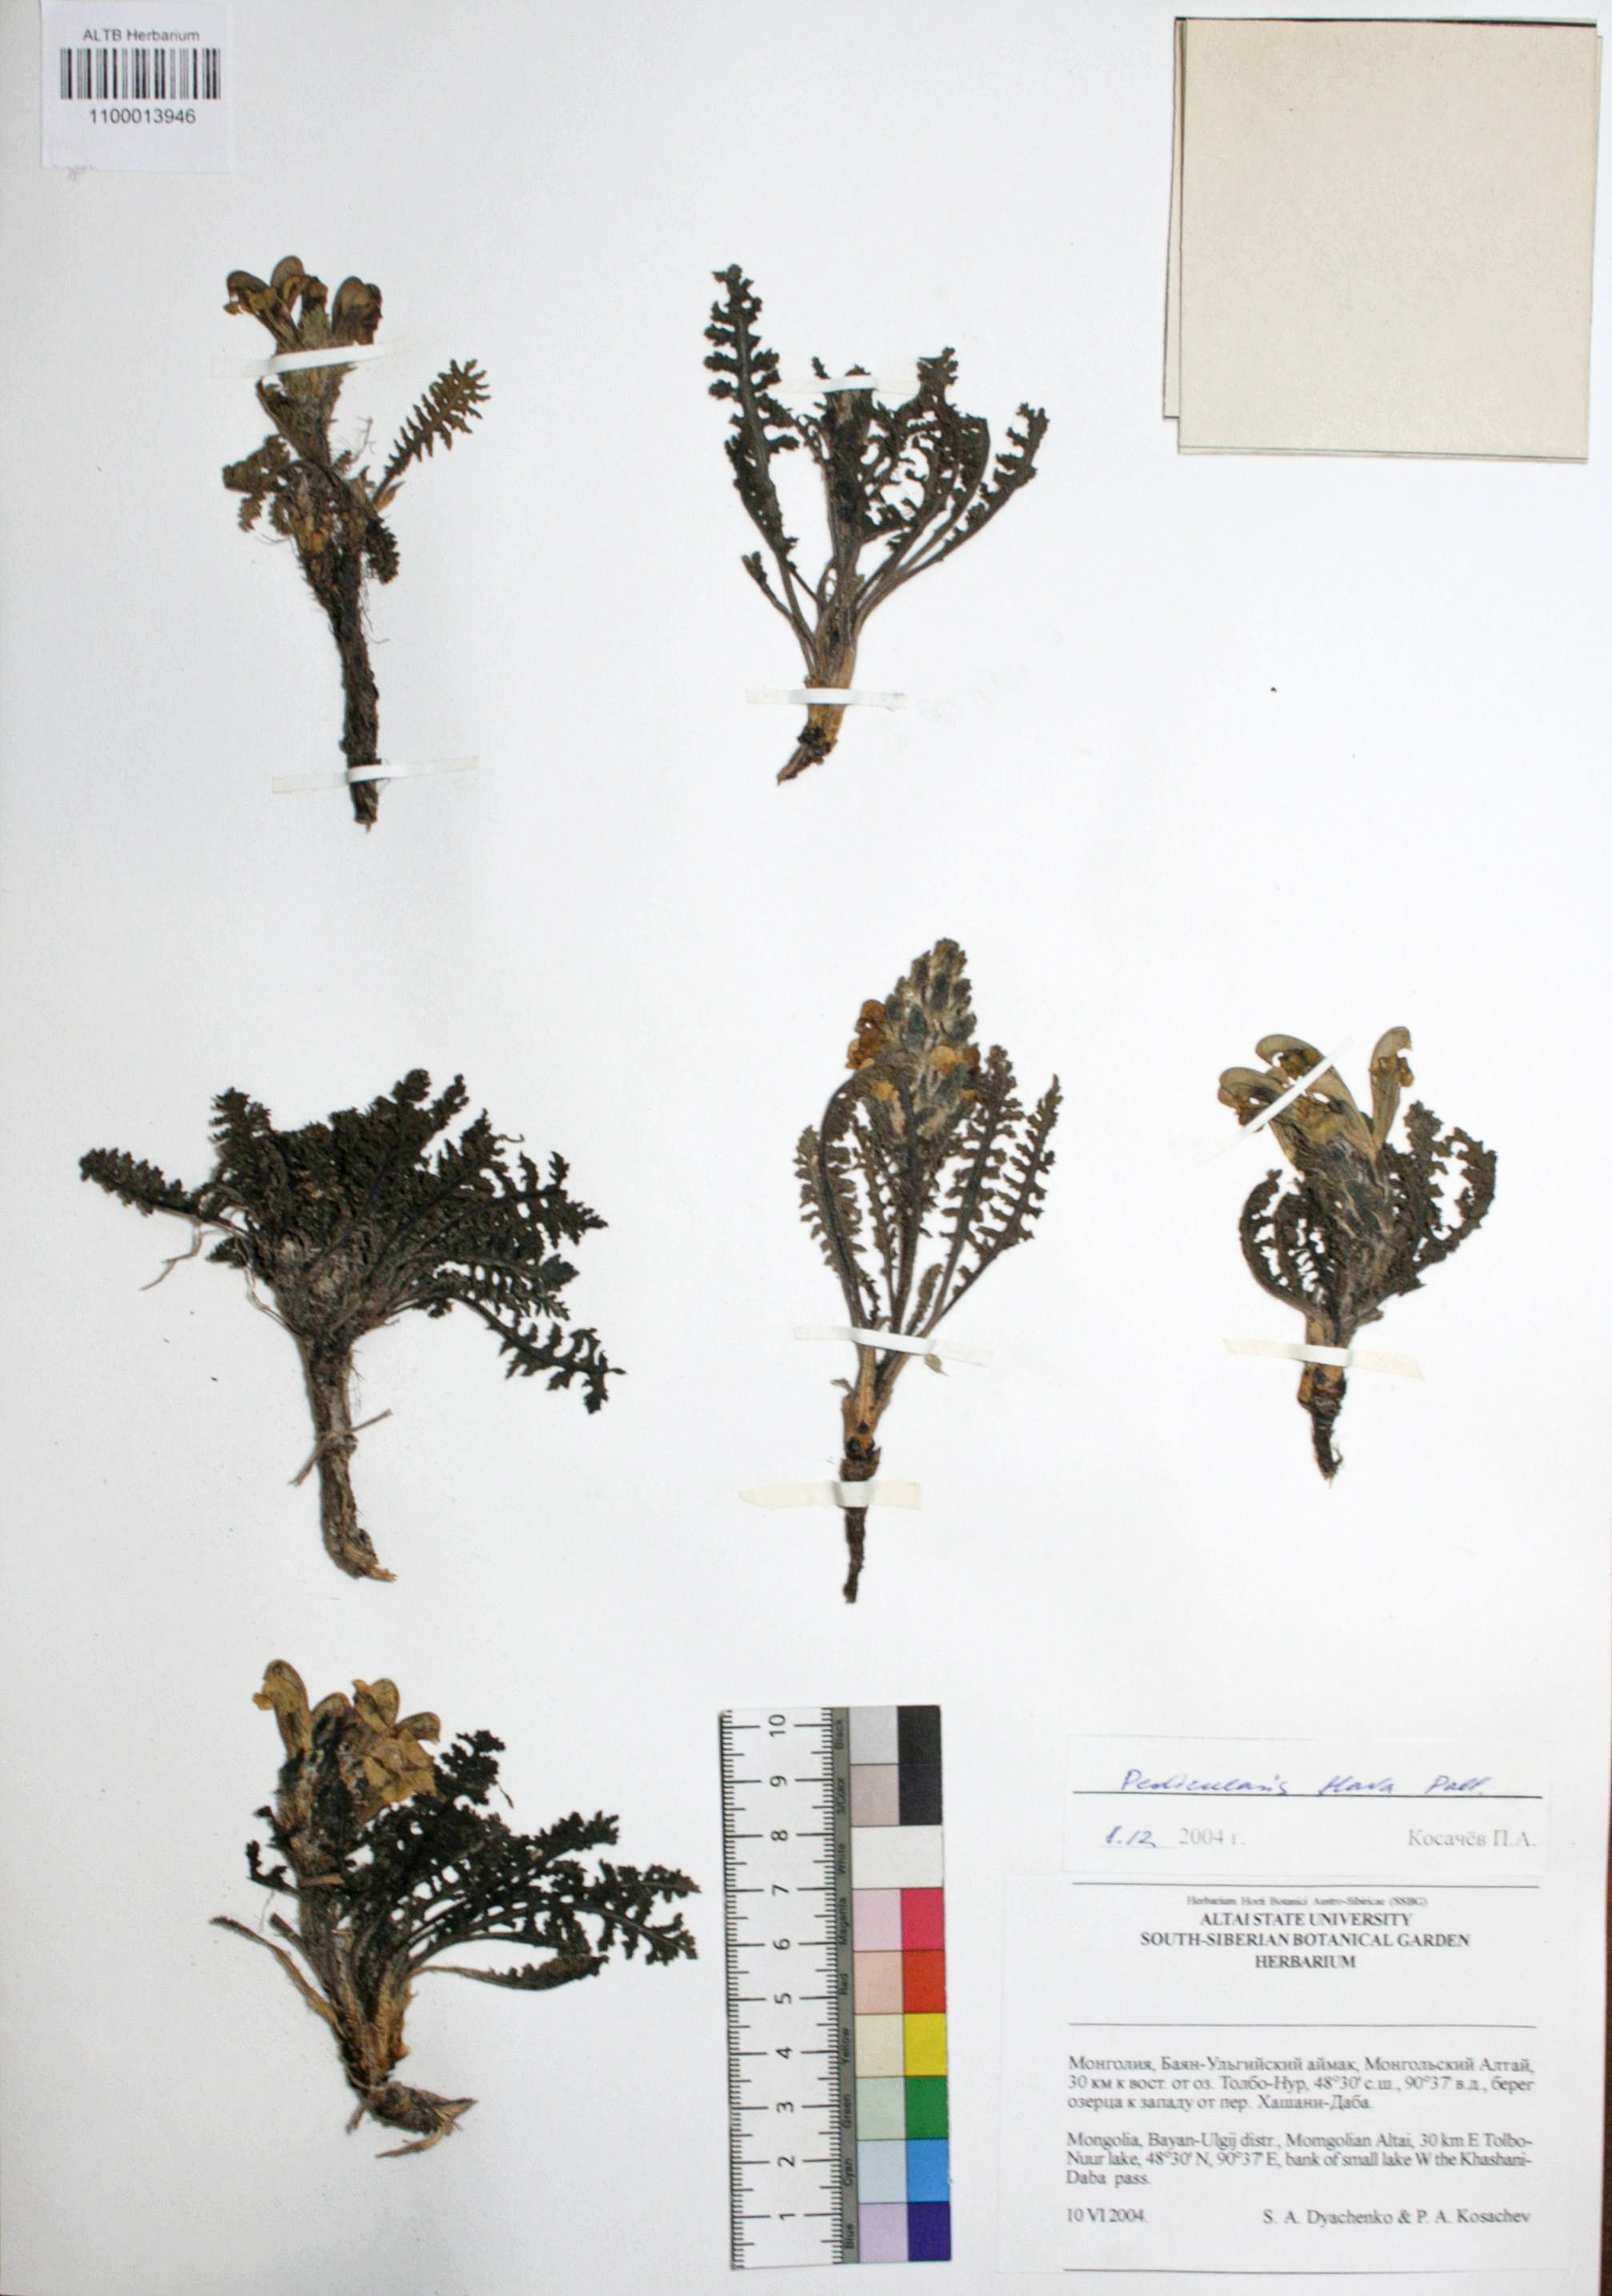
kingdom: Plantae
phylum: Tracheophyta
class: Magnoliopsida
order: Lamiales
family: Orobanchaceae
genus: Pedicularis
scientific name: Pedicularis flava
